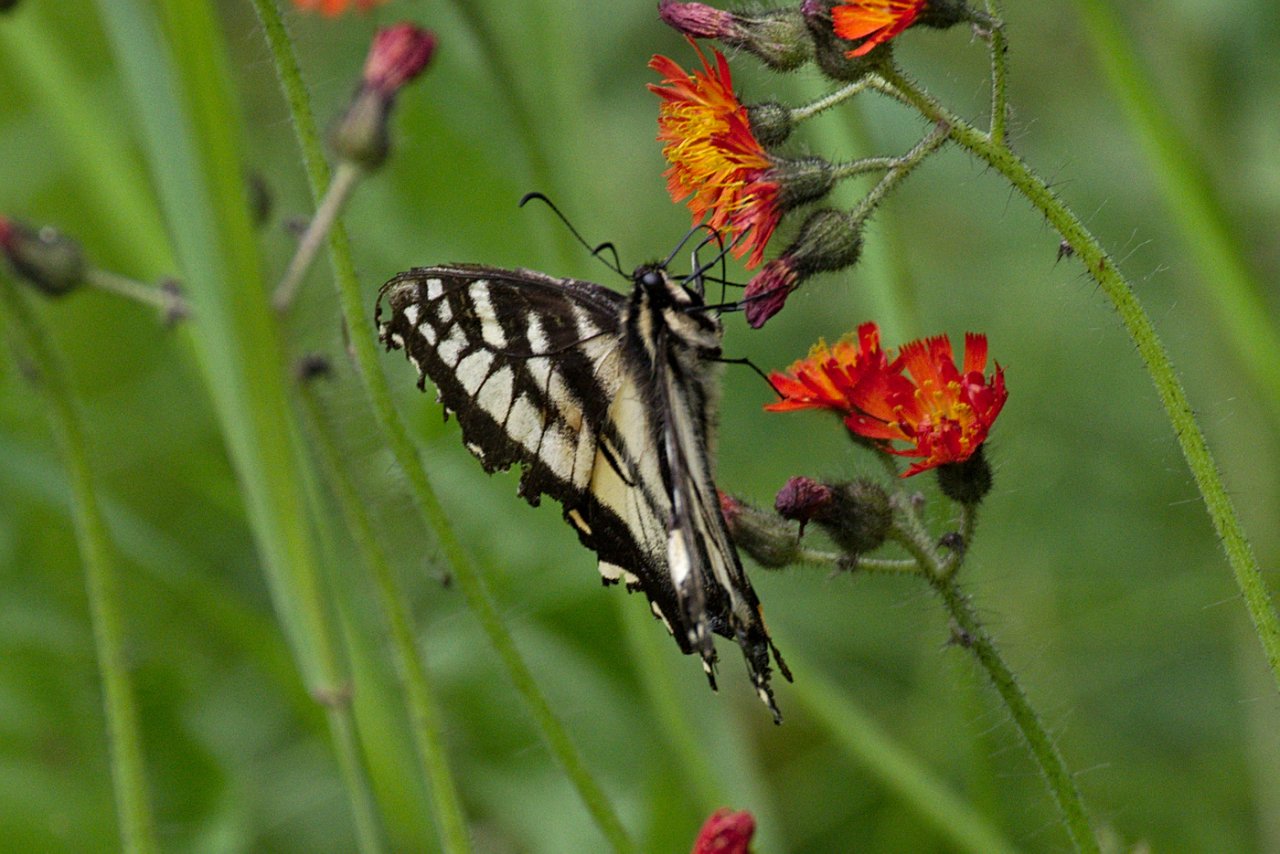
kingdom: Animalia
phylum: Arthropoda
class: Insecta
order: Lepidoptera
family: Papilionidae
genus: Pterourus
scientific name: Pterourus canadensis
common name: Canadian Tiger Swallowtail
